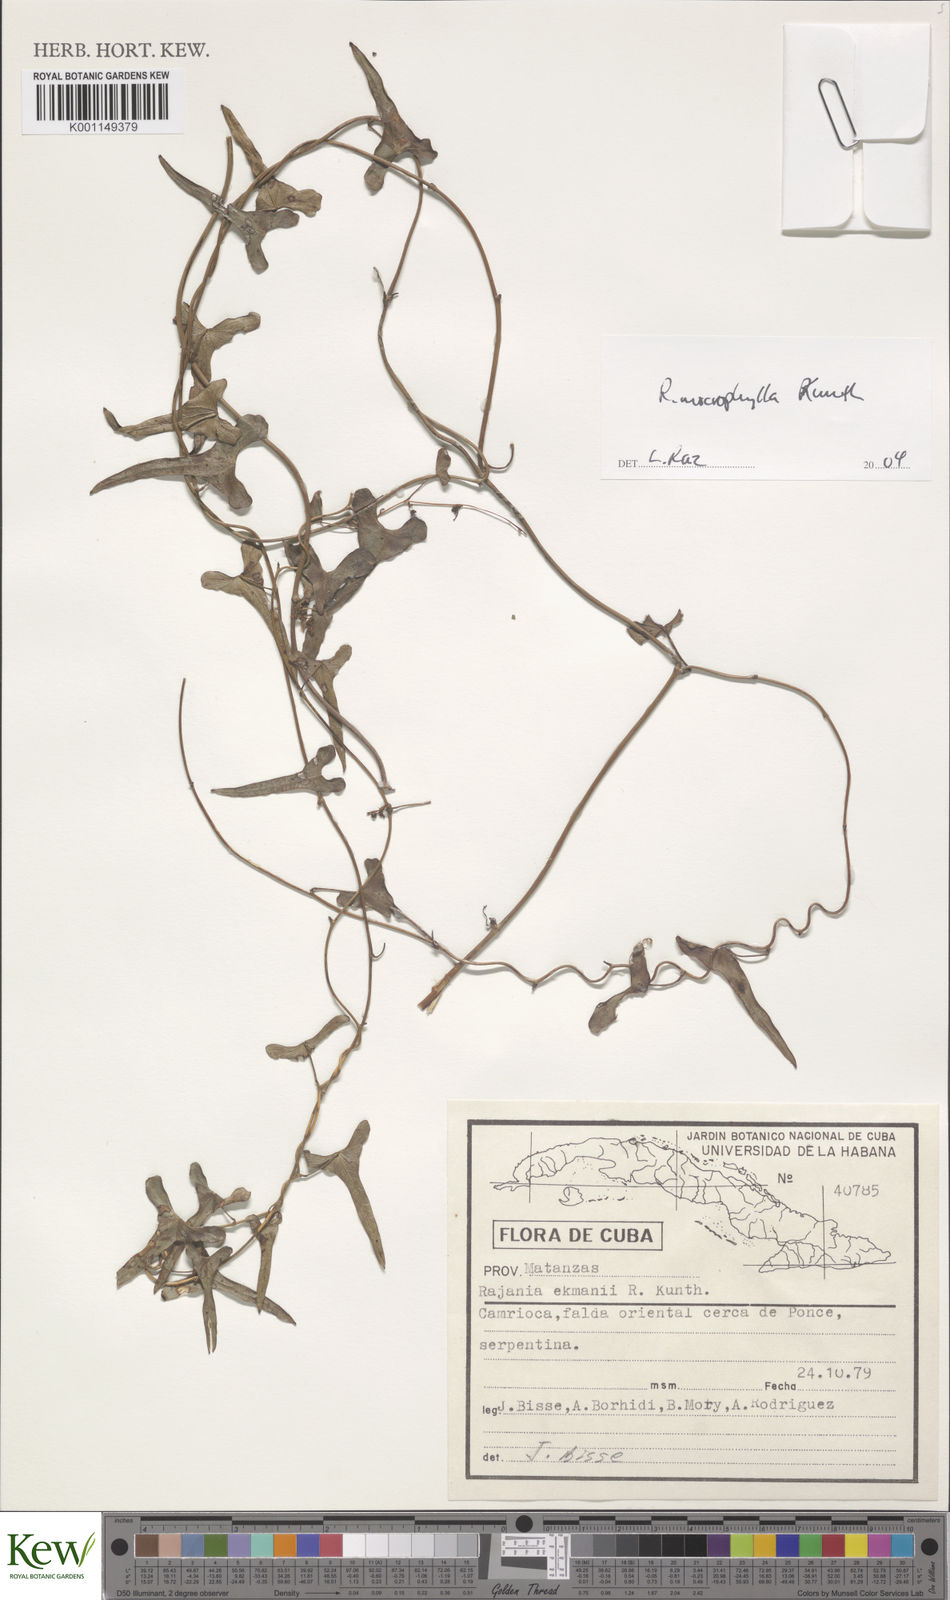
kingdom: Plantae
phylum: Tracheophyta
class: Liliopsida
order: Dioscoreales
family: Dioscoreaceae
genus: Dioscorea
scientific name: Dioscorea variifolia
